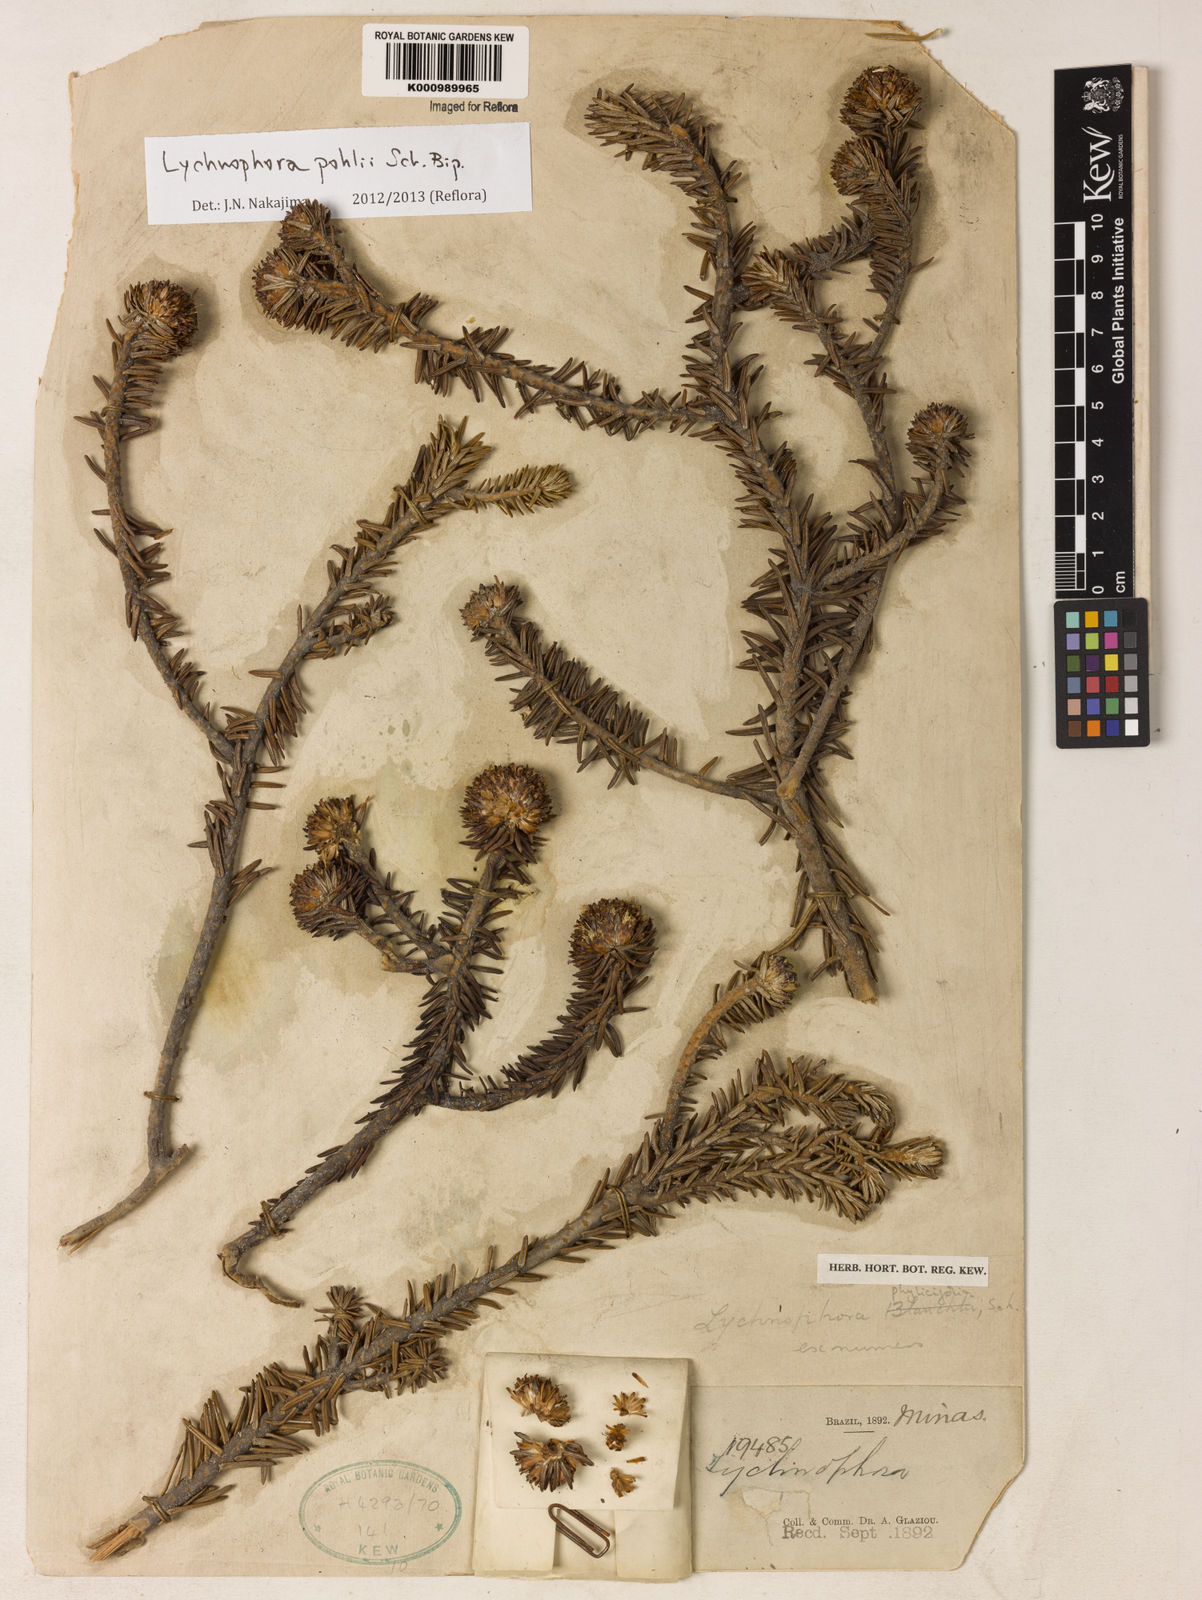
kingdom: Plantae
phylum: Tracheophyta
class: Magnoliopsida
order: Asterales
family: Asteraceae
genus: Lychnophora
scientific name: Lychnophora pohlii
